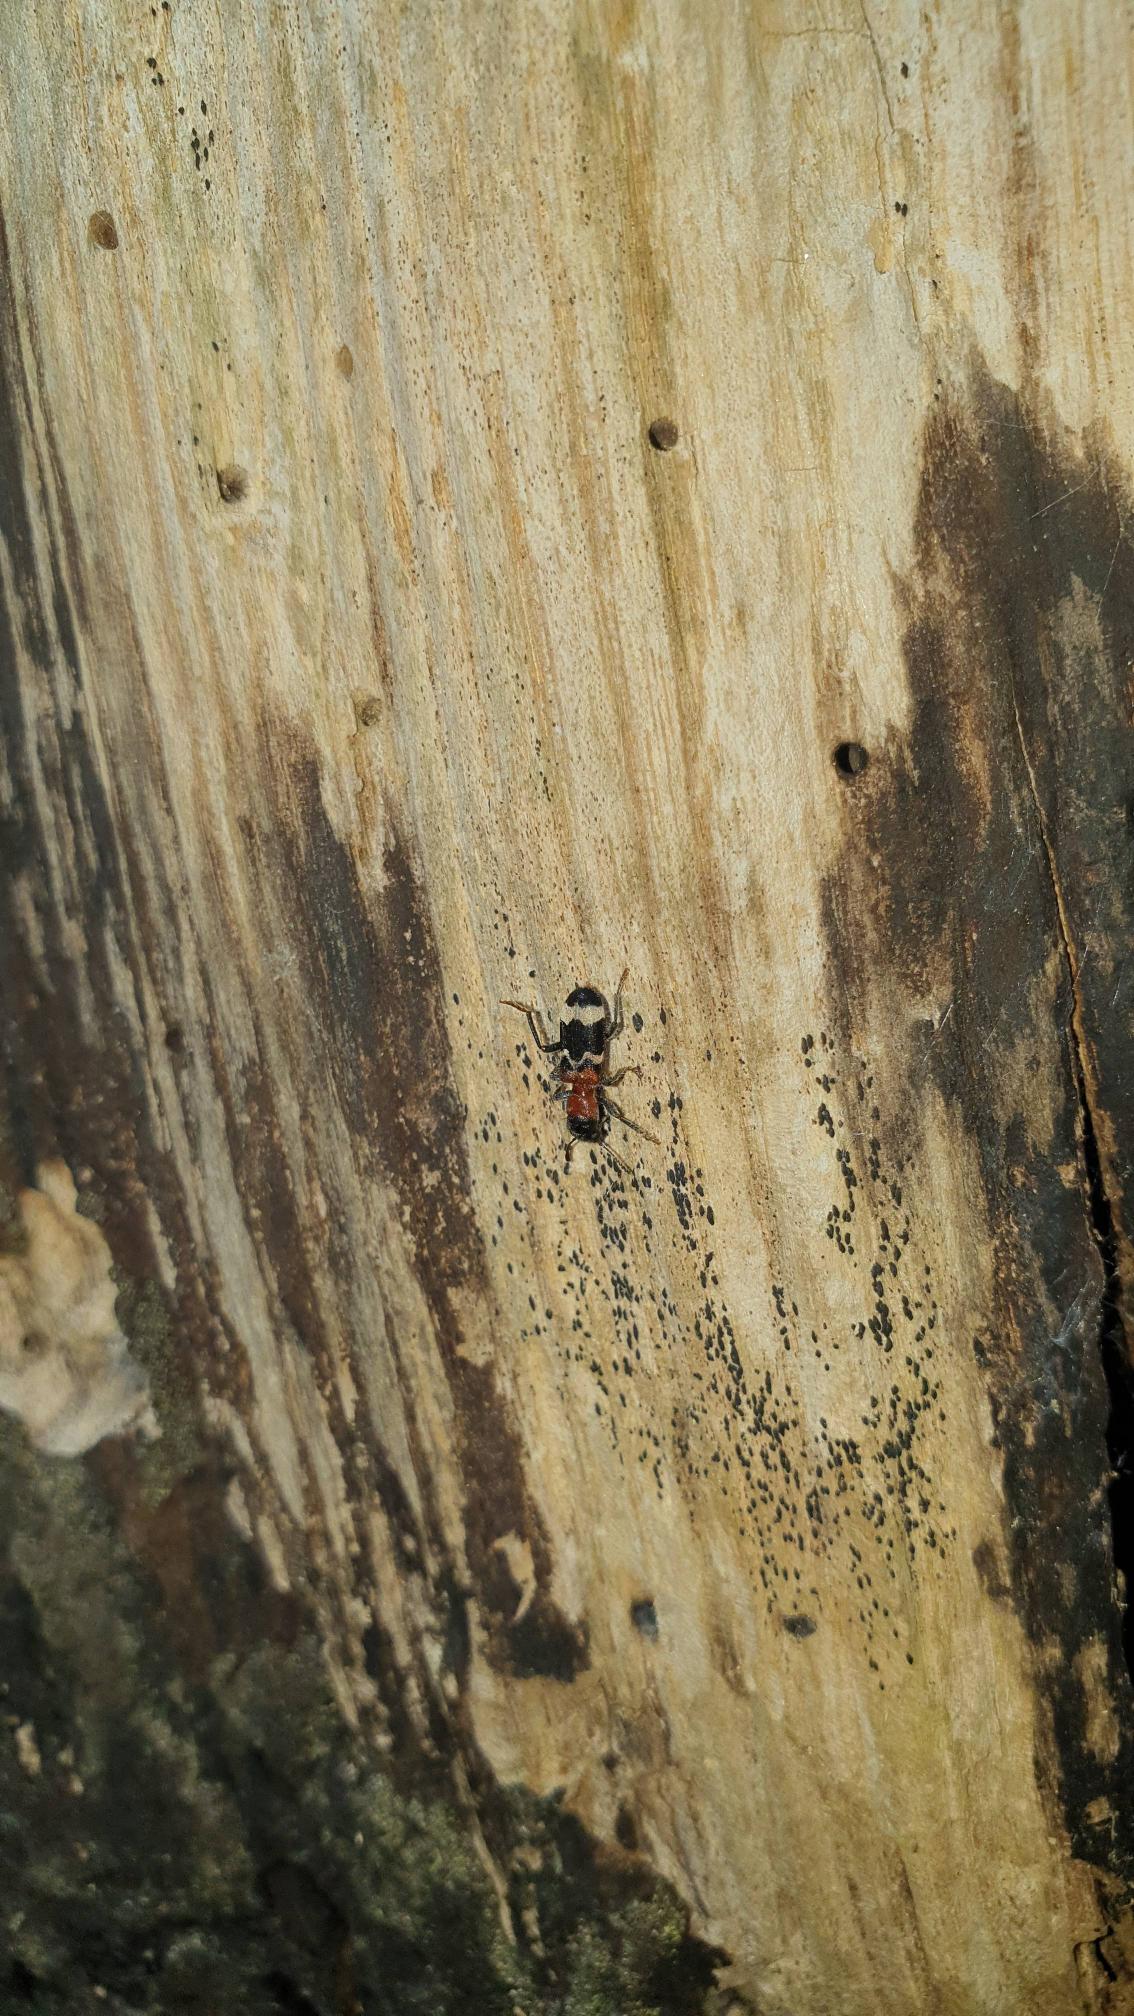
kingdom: Animalia
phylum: Arthropoda
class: Insecta
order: Coleoptera
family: Cleridae
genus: Thanasimus
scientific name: Thanasimus formicarius
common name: Myrebille
